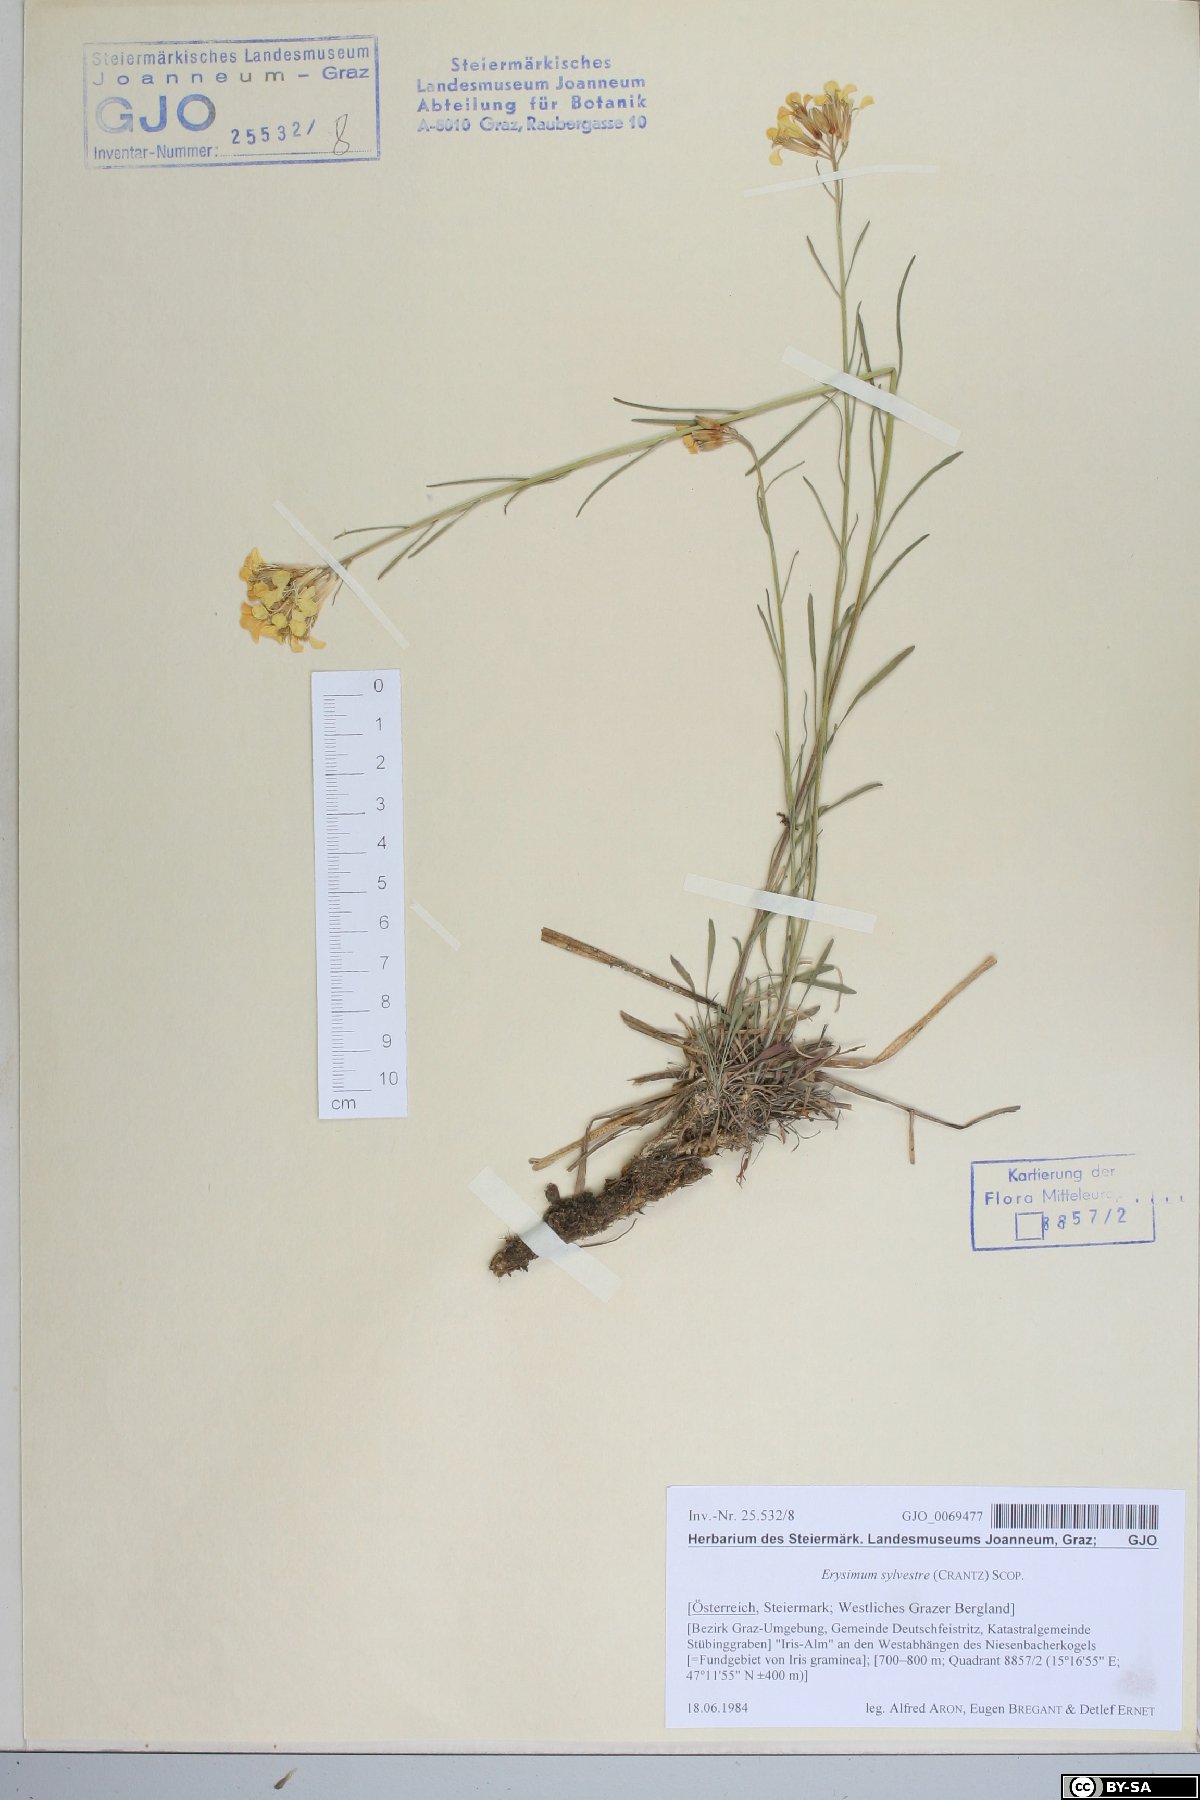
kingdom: Plantae
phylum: Tracheophyta
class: Magnoliopsida
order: Brassicales
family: Brassicaceae
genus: Erysimum
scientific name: Erysimum sylvestre
